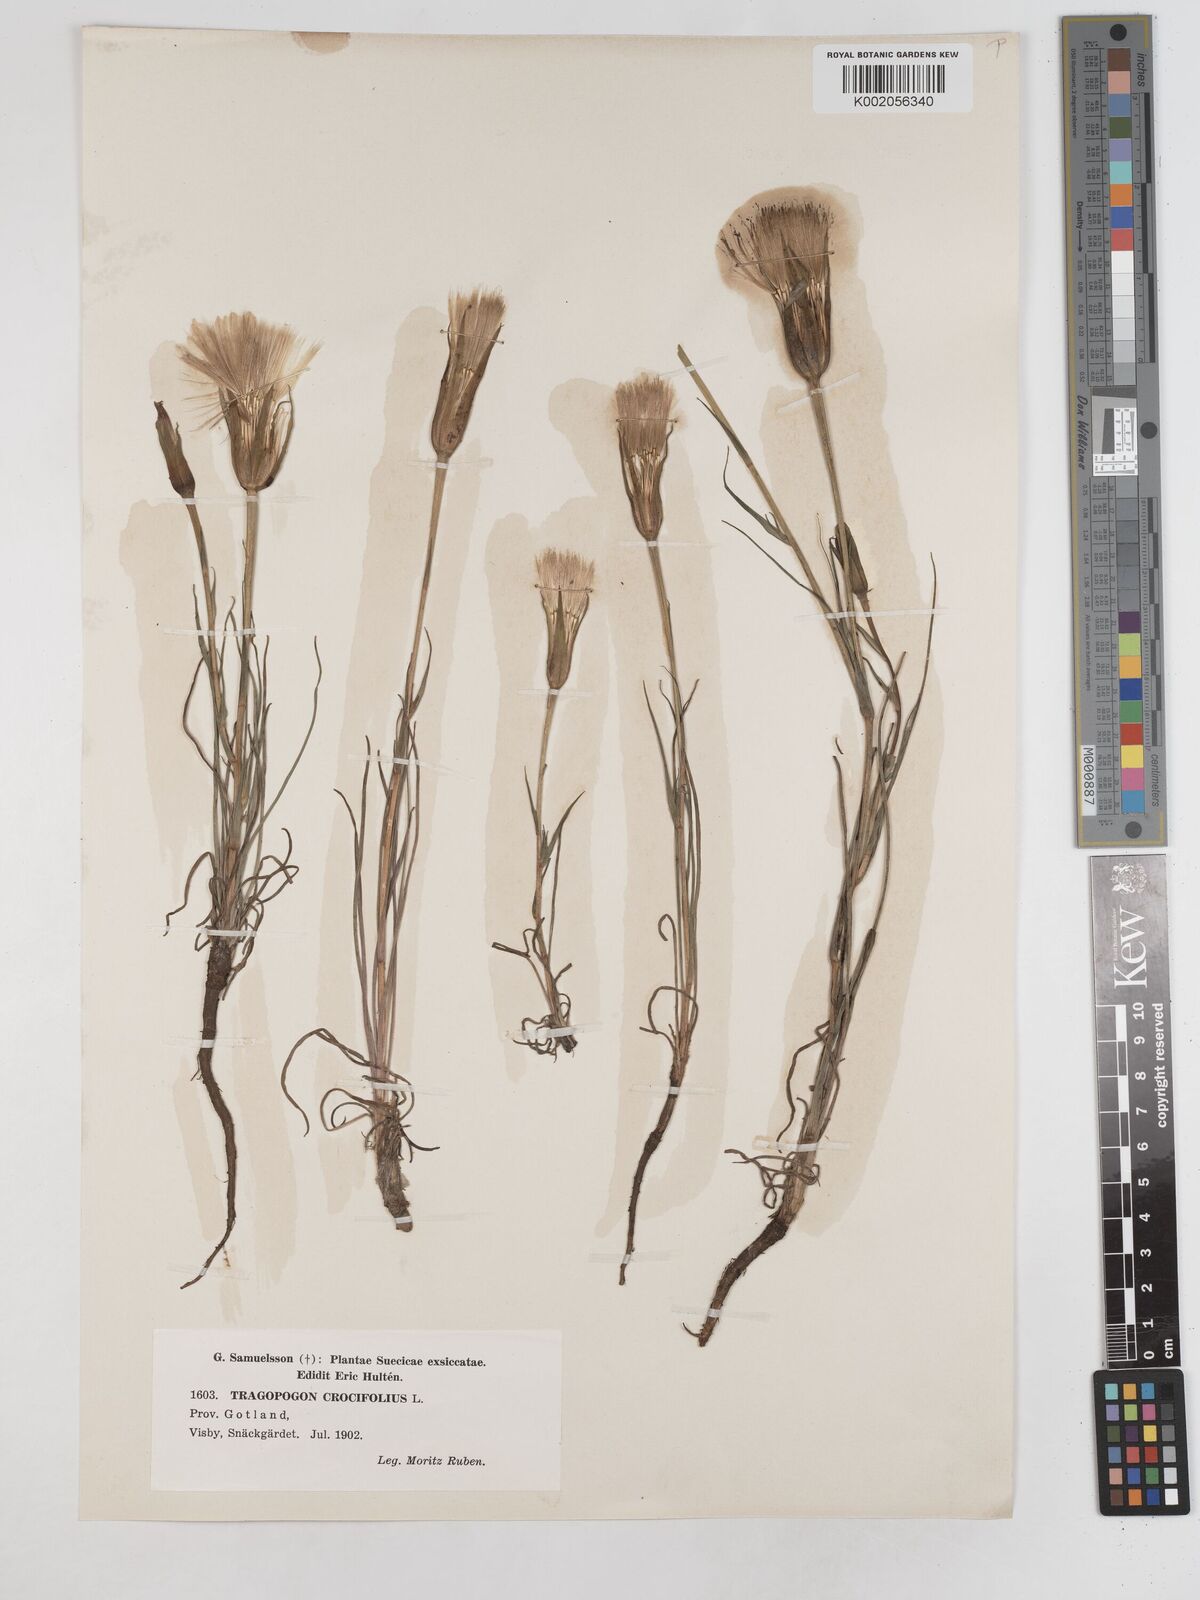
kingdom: Plantae
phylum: Tracheophyta
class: Magnoliopsida
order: Asterales
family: Asteraceae
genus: Tragopogon
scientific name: Tragopogon crocifolius
